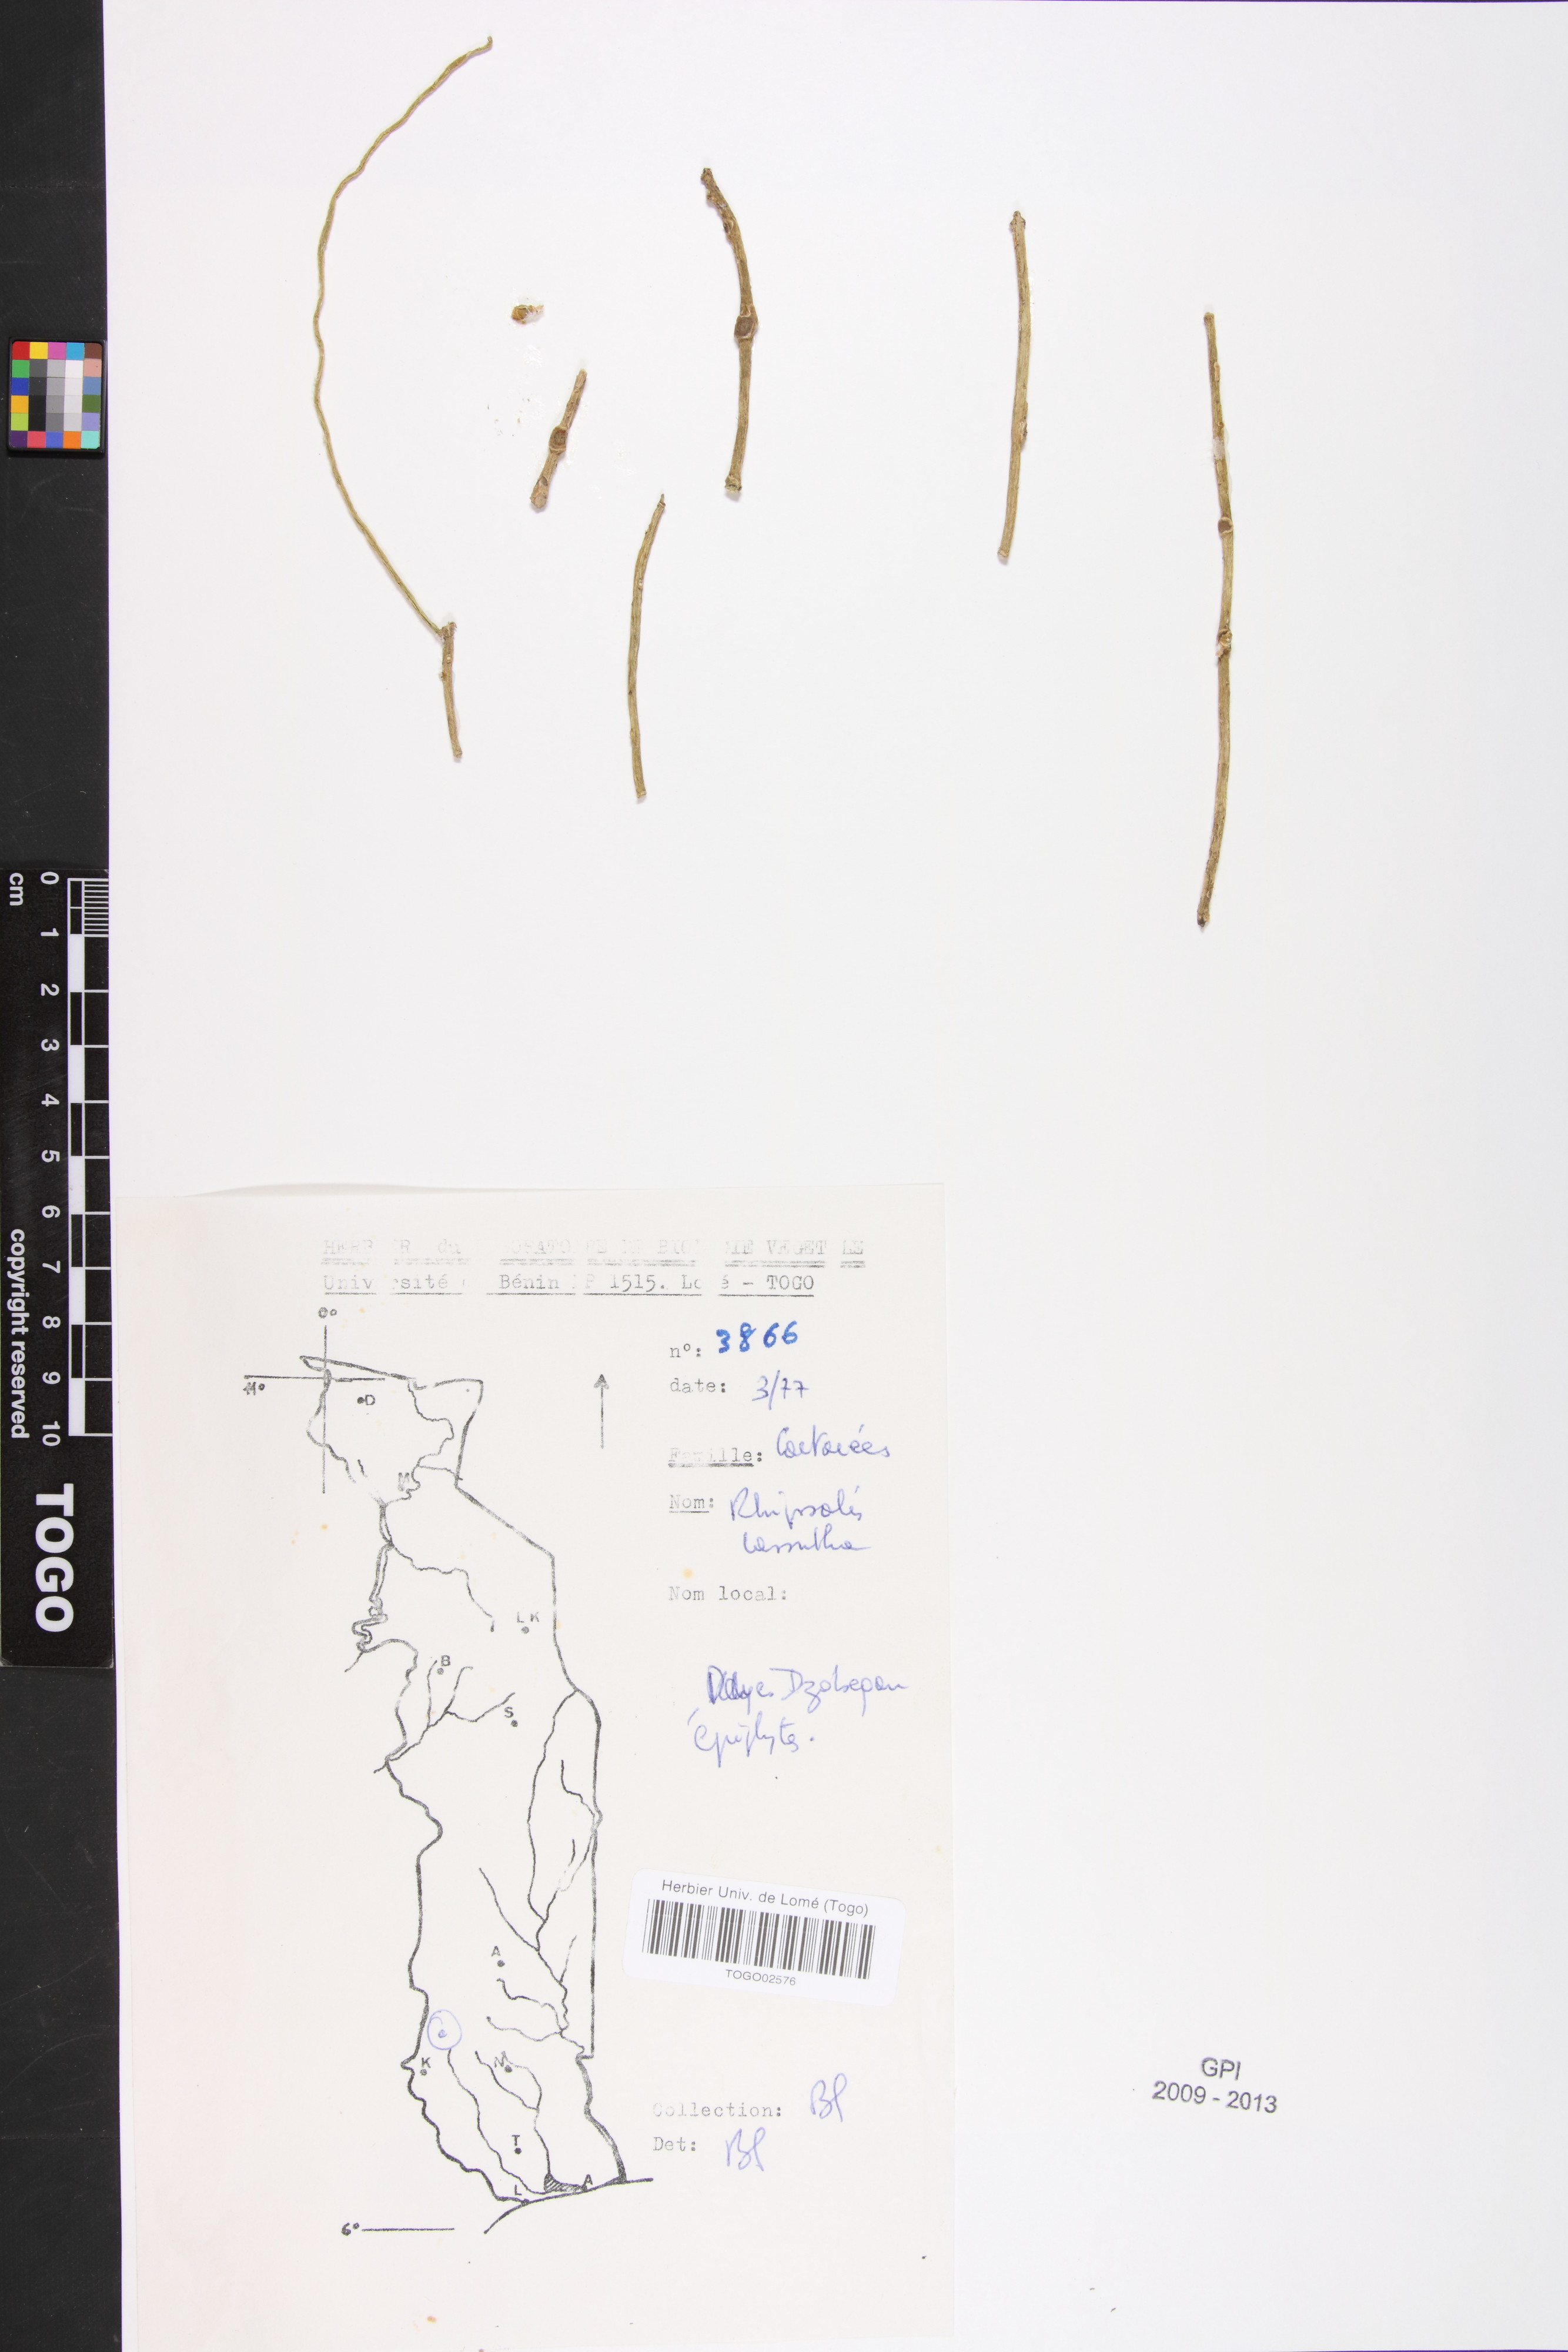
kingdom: Plantae
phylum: Tracheophyta
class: Magnoliopsida
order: Caryophyllales
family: Cactaceae
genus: Rhipsalis
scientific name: Rhipsalis baccifera
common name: Mistletoe cactus
